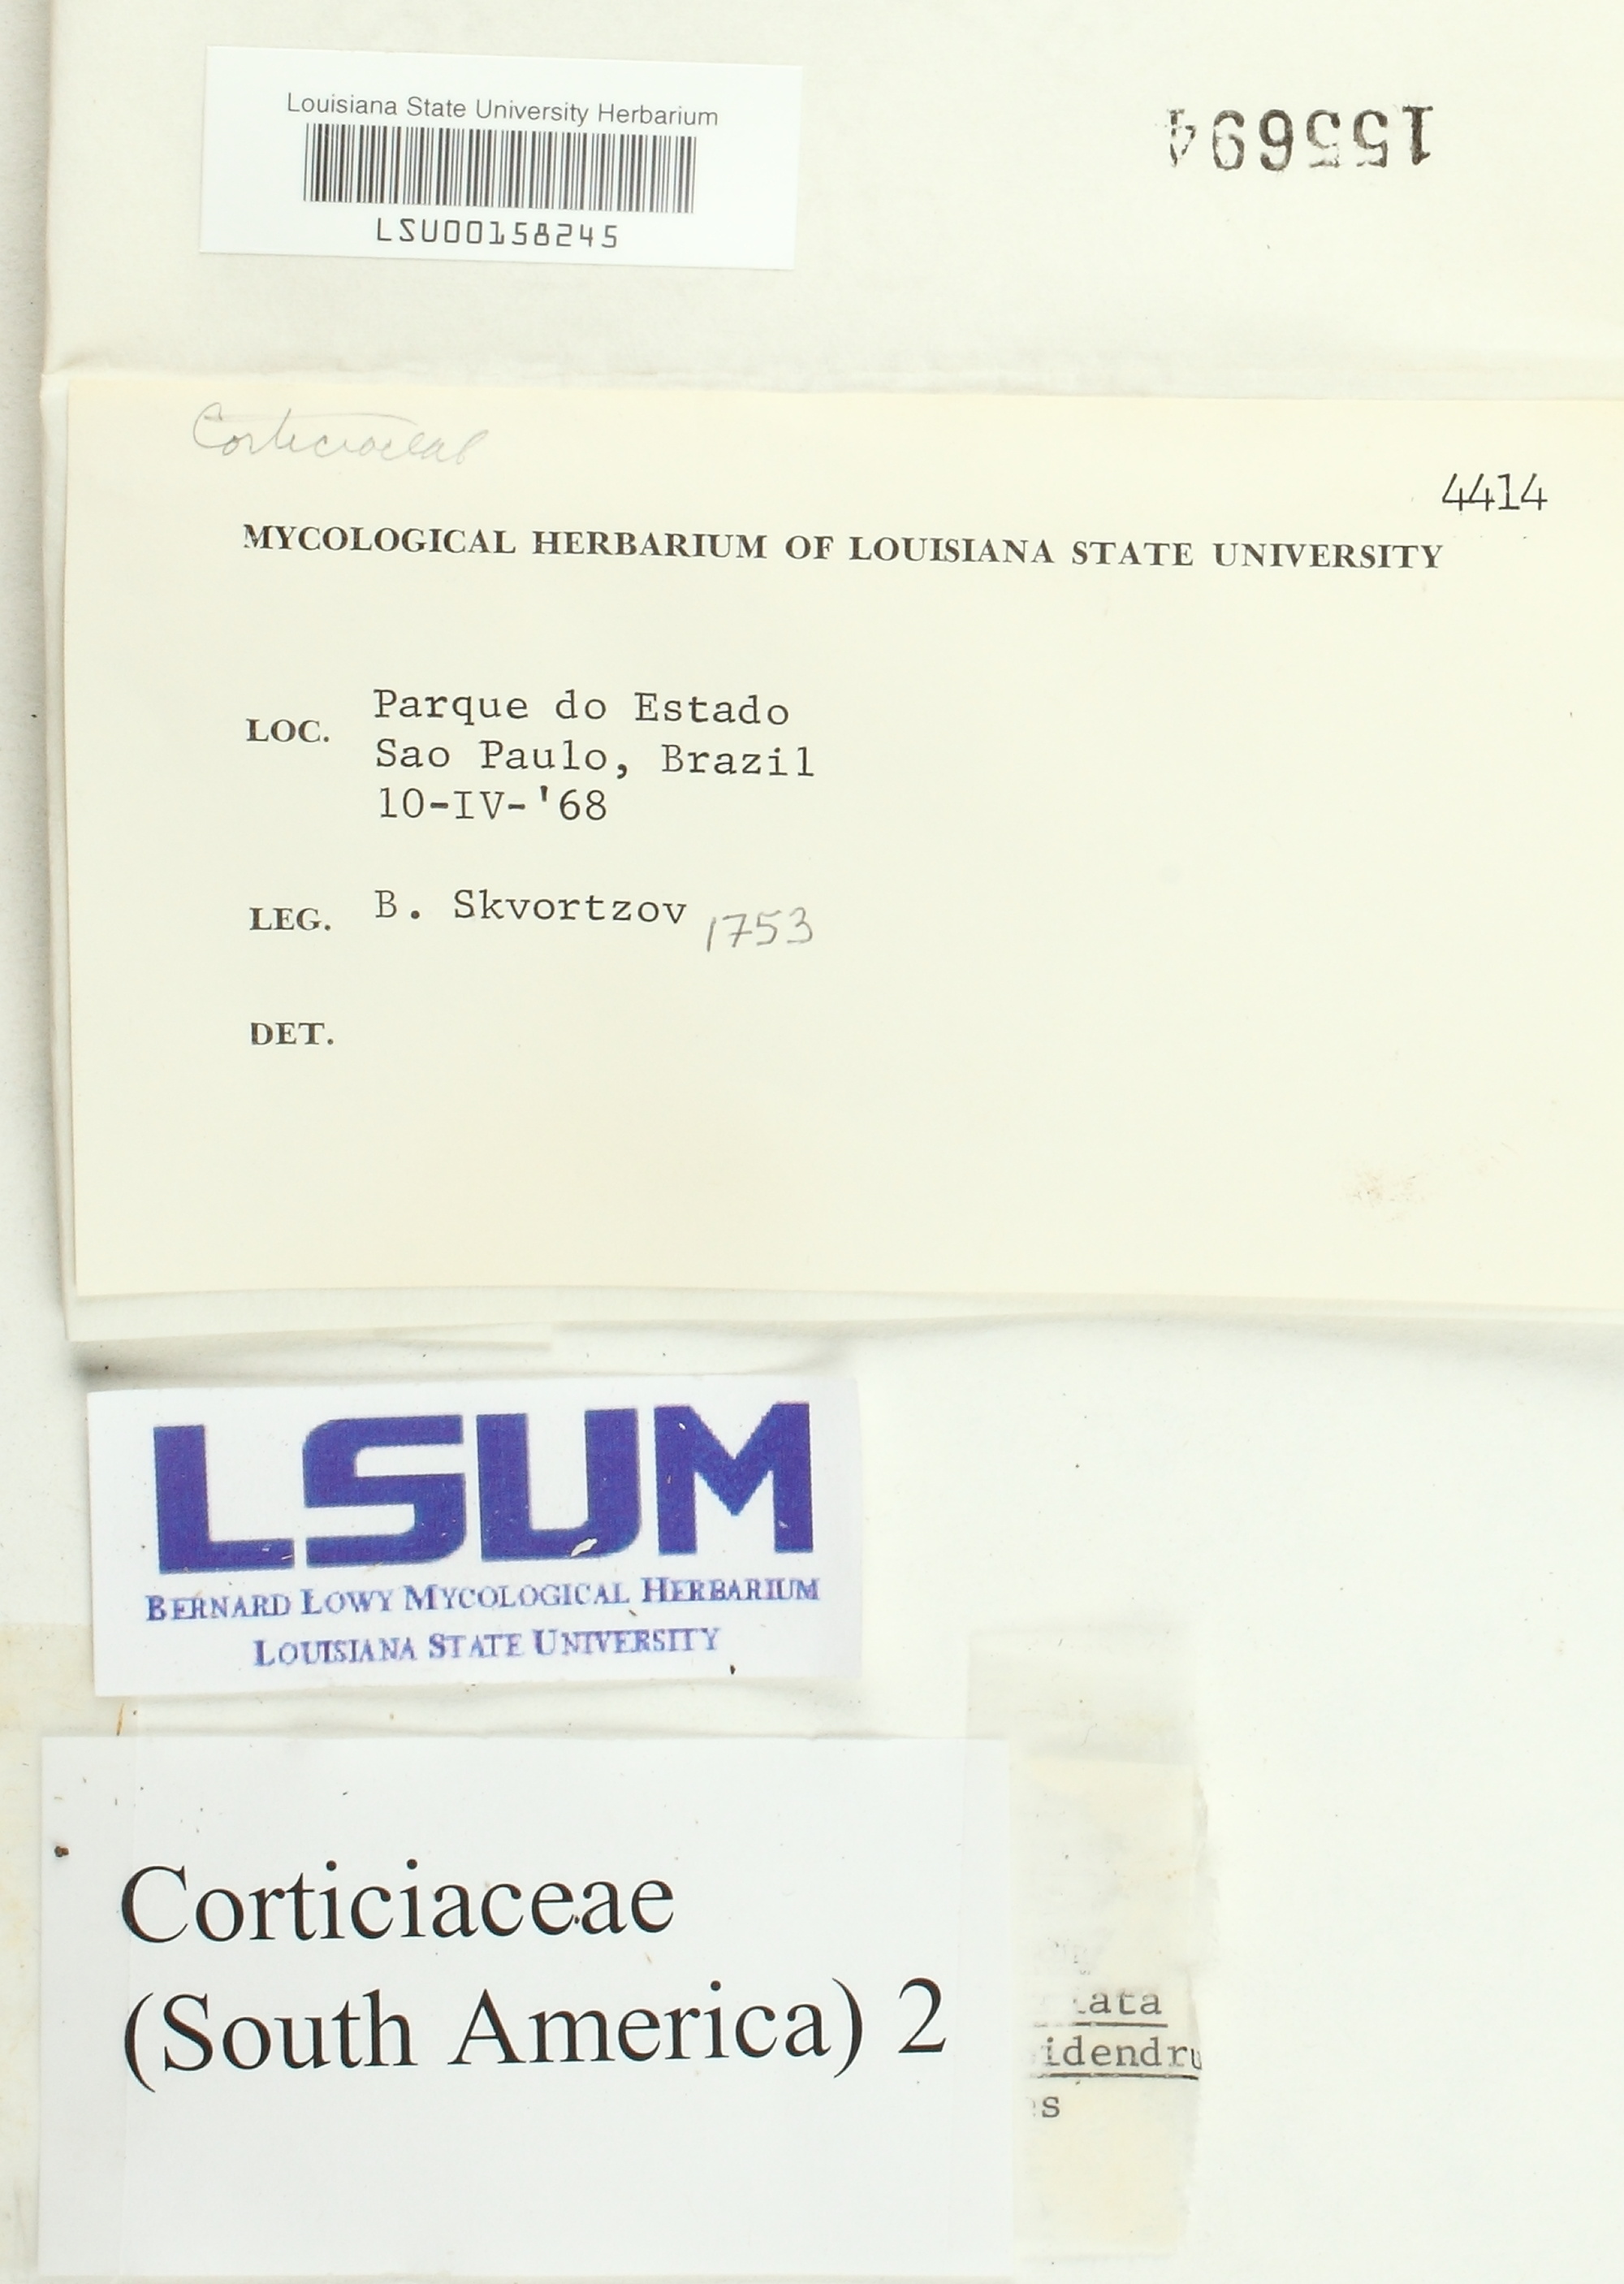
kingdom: Fungi
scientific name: Fungi
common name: Fungi
